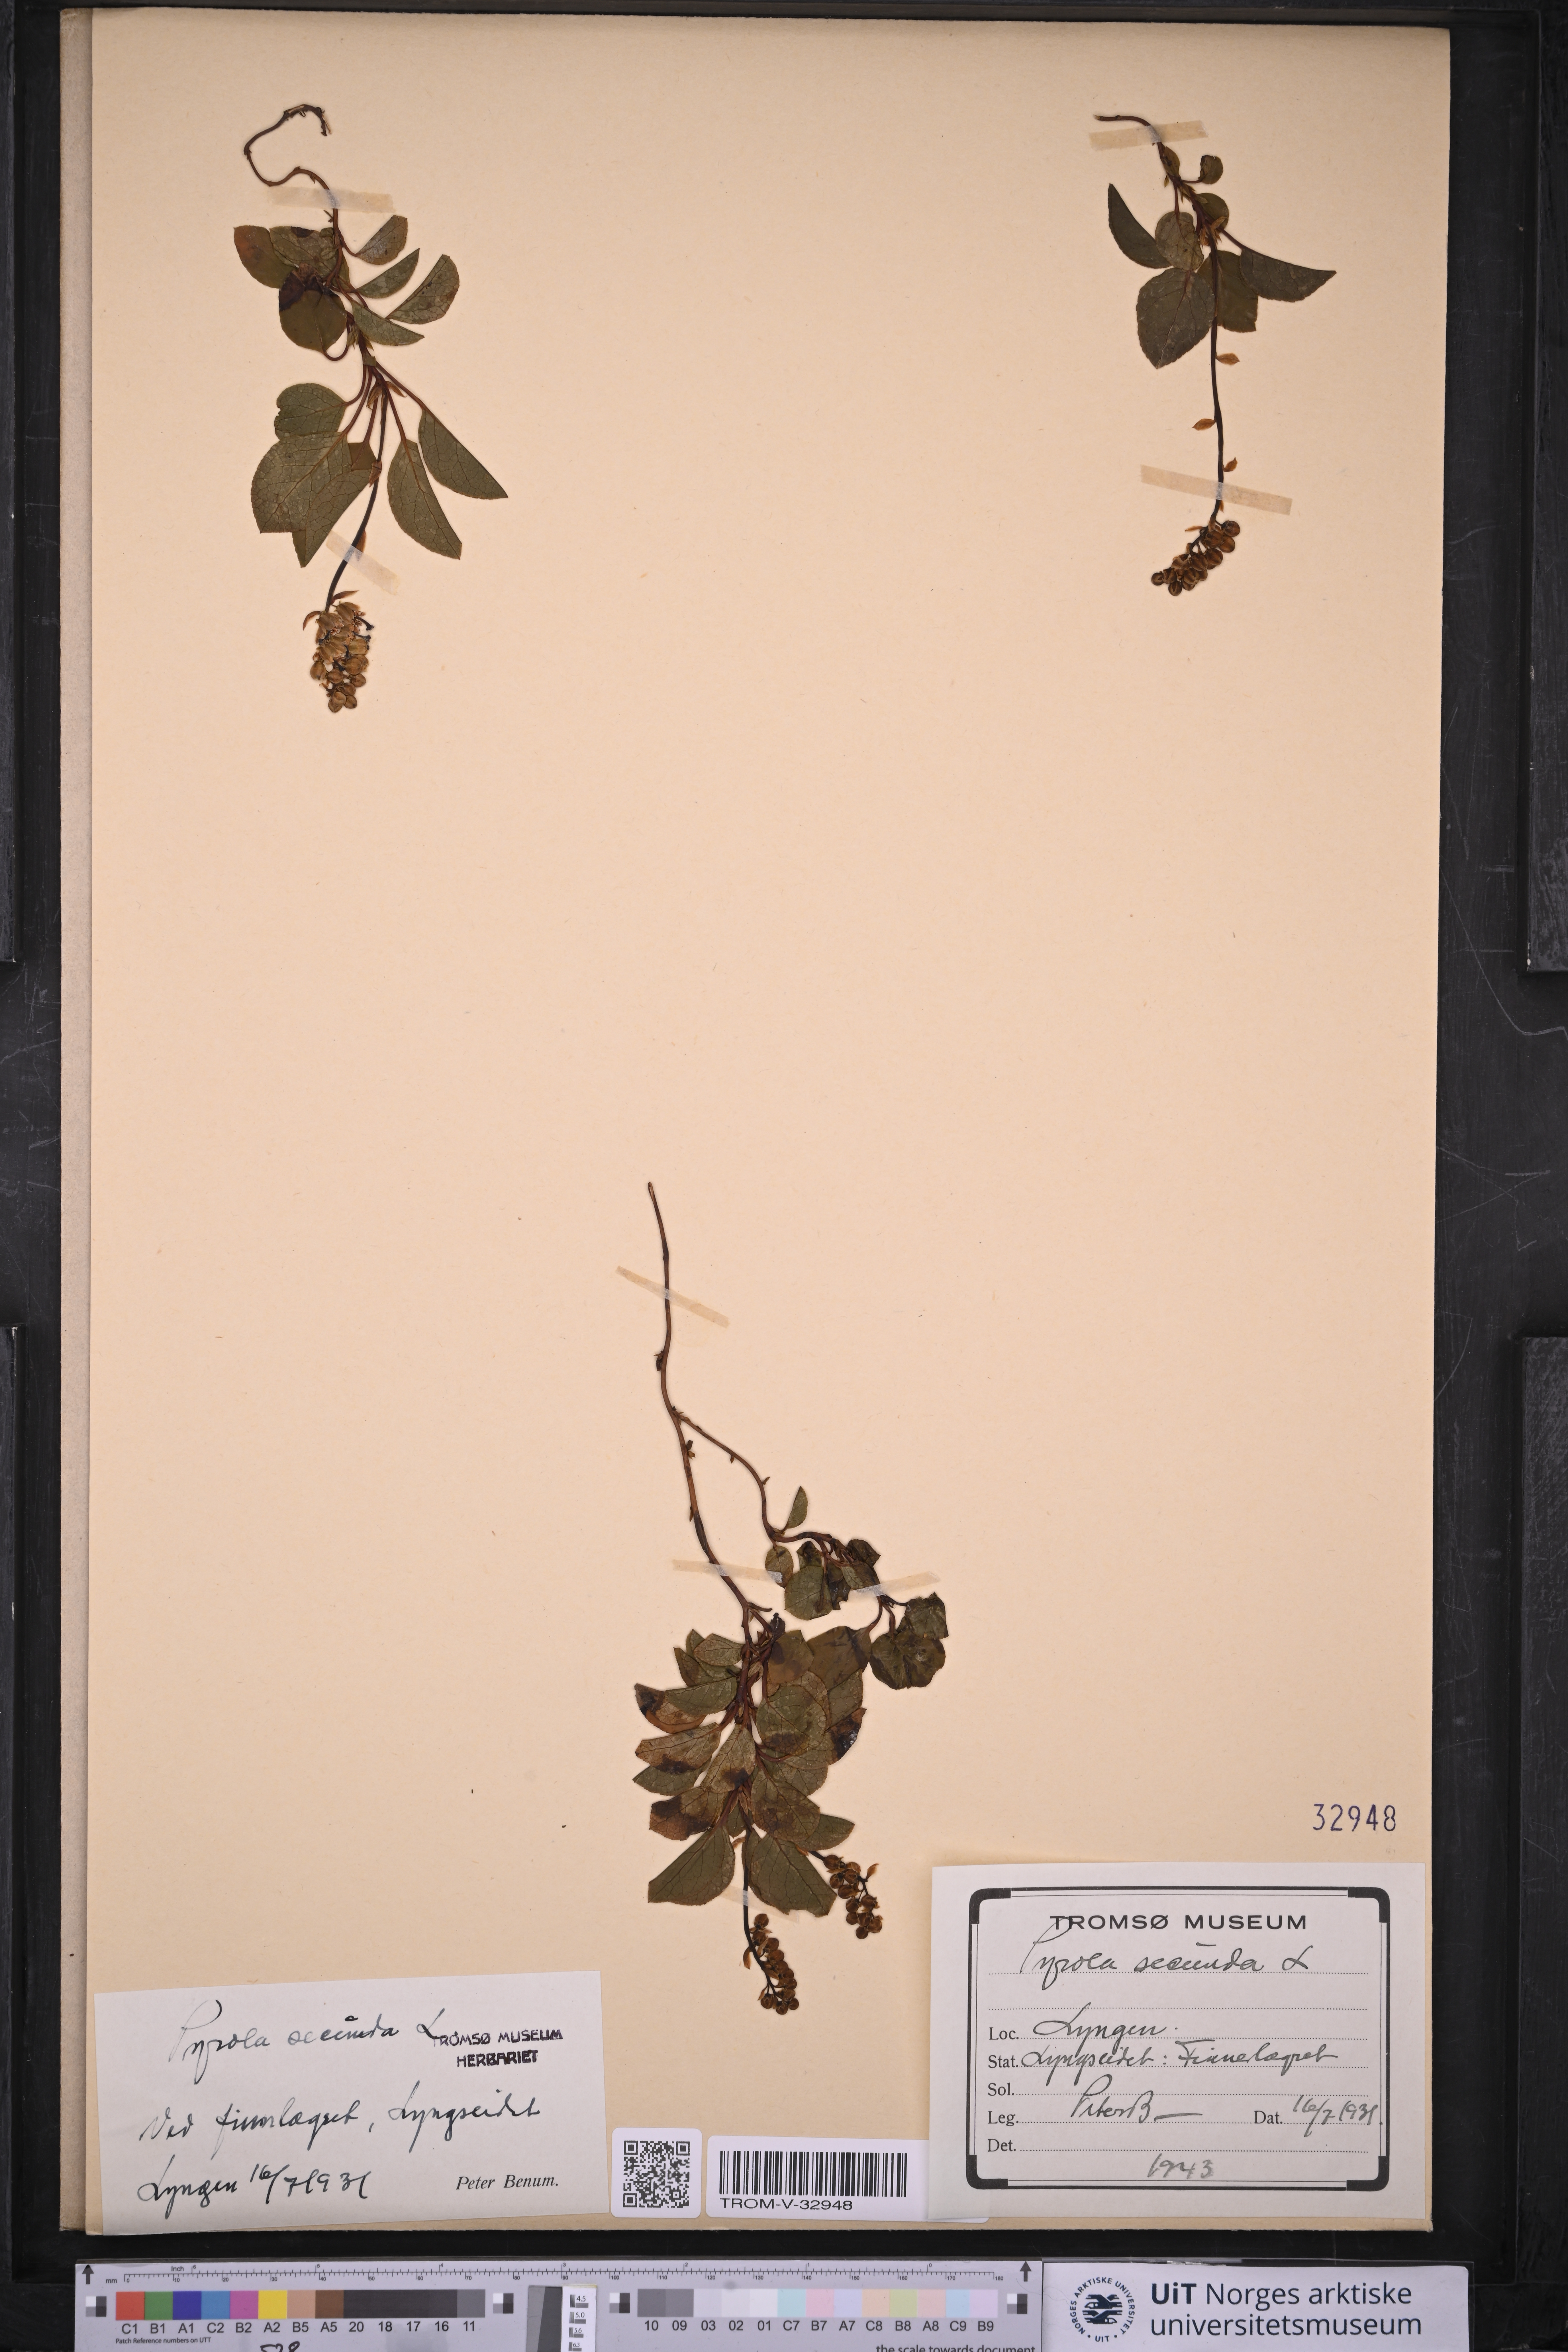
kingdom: Plantae
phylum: Tracheophyta
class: Magnoliopsida
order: Ericales
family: Ericaceae
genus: Orthilia
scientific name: Orthilia secunda
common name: One-sided orthilia
